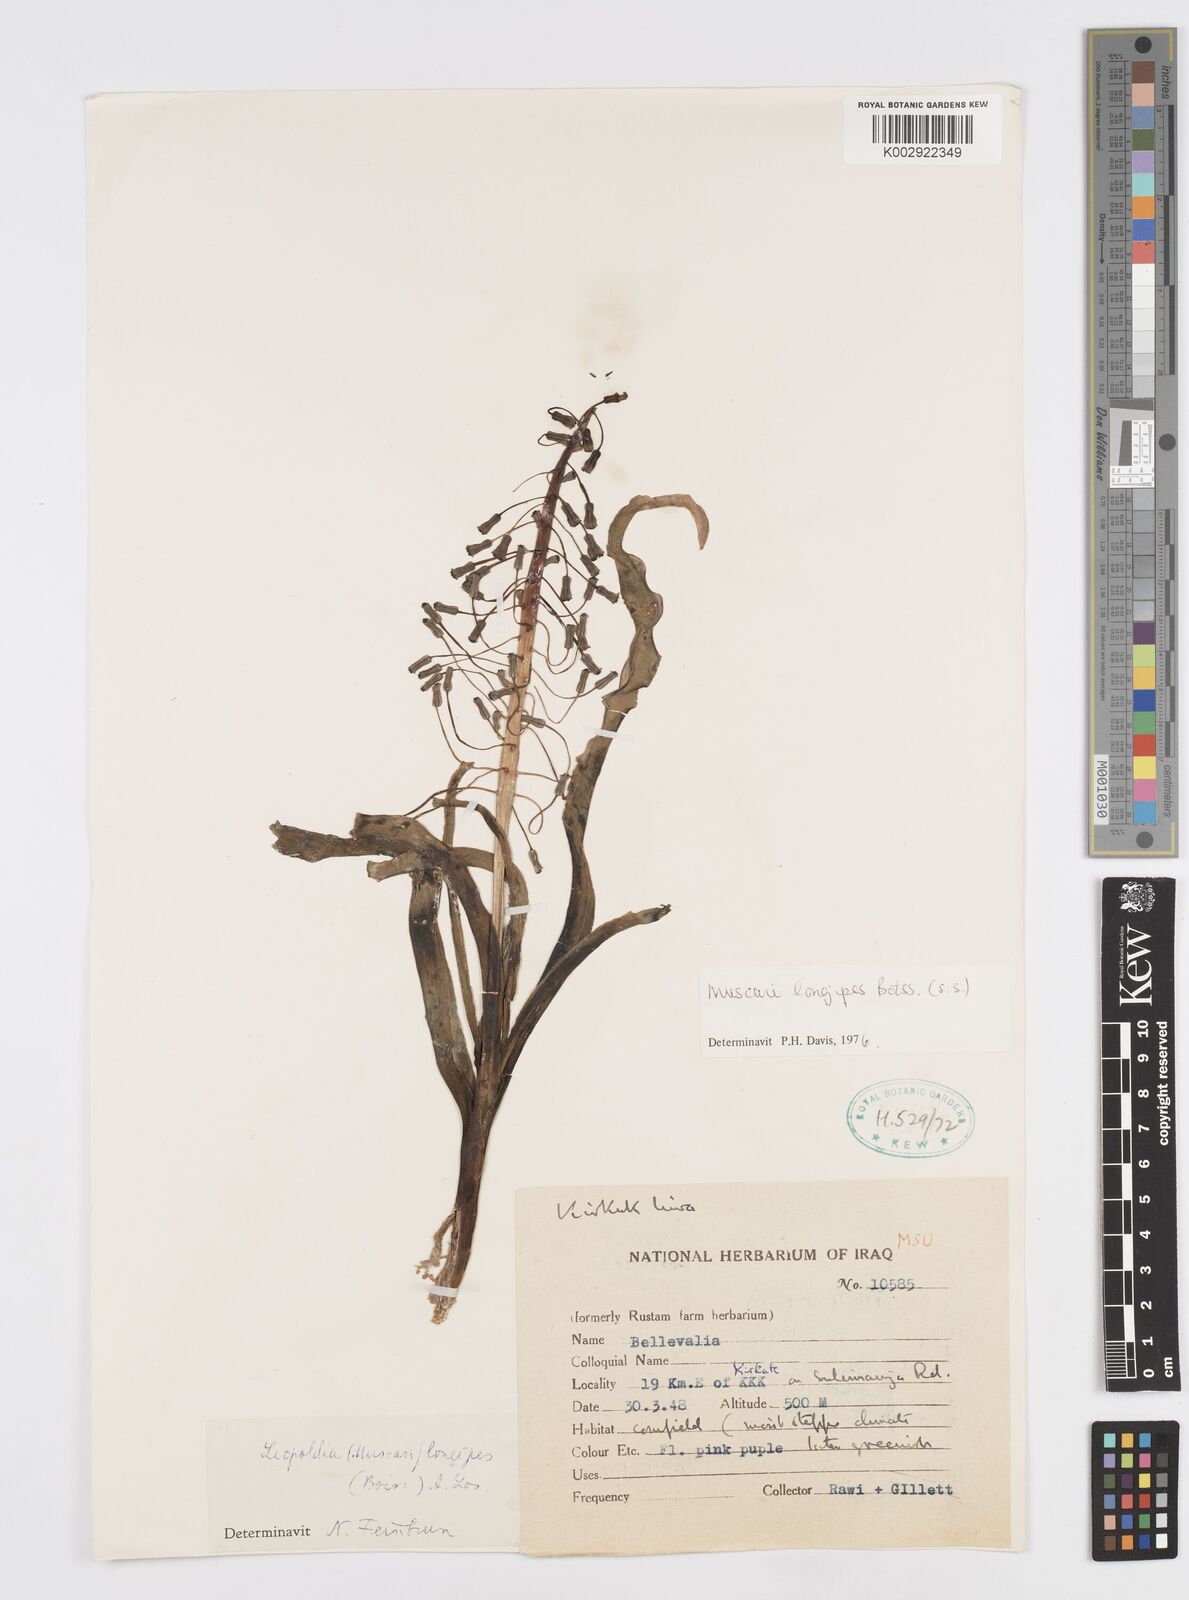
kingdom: Plantae
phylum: Tracheophyta
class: Liliopsida
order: Asparagales
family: Asparagaceae
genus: Muscari
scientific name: Muscari longipes
